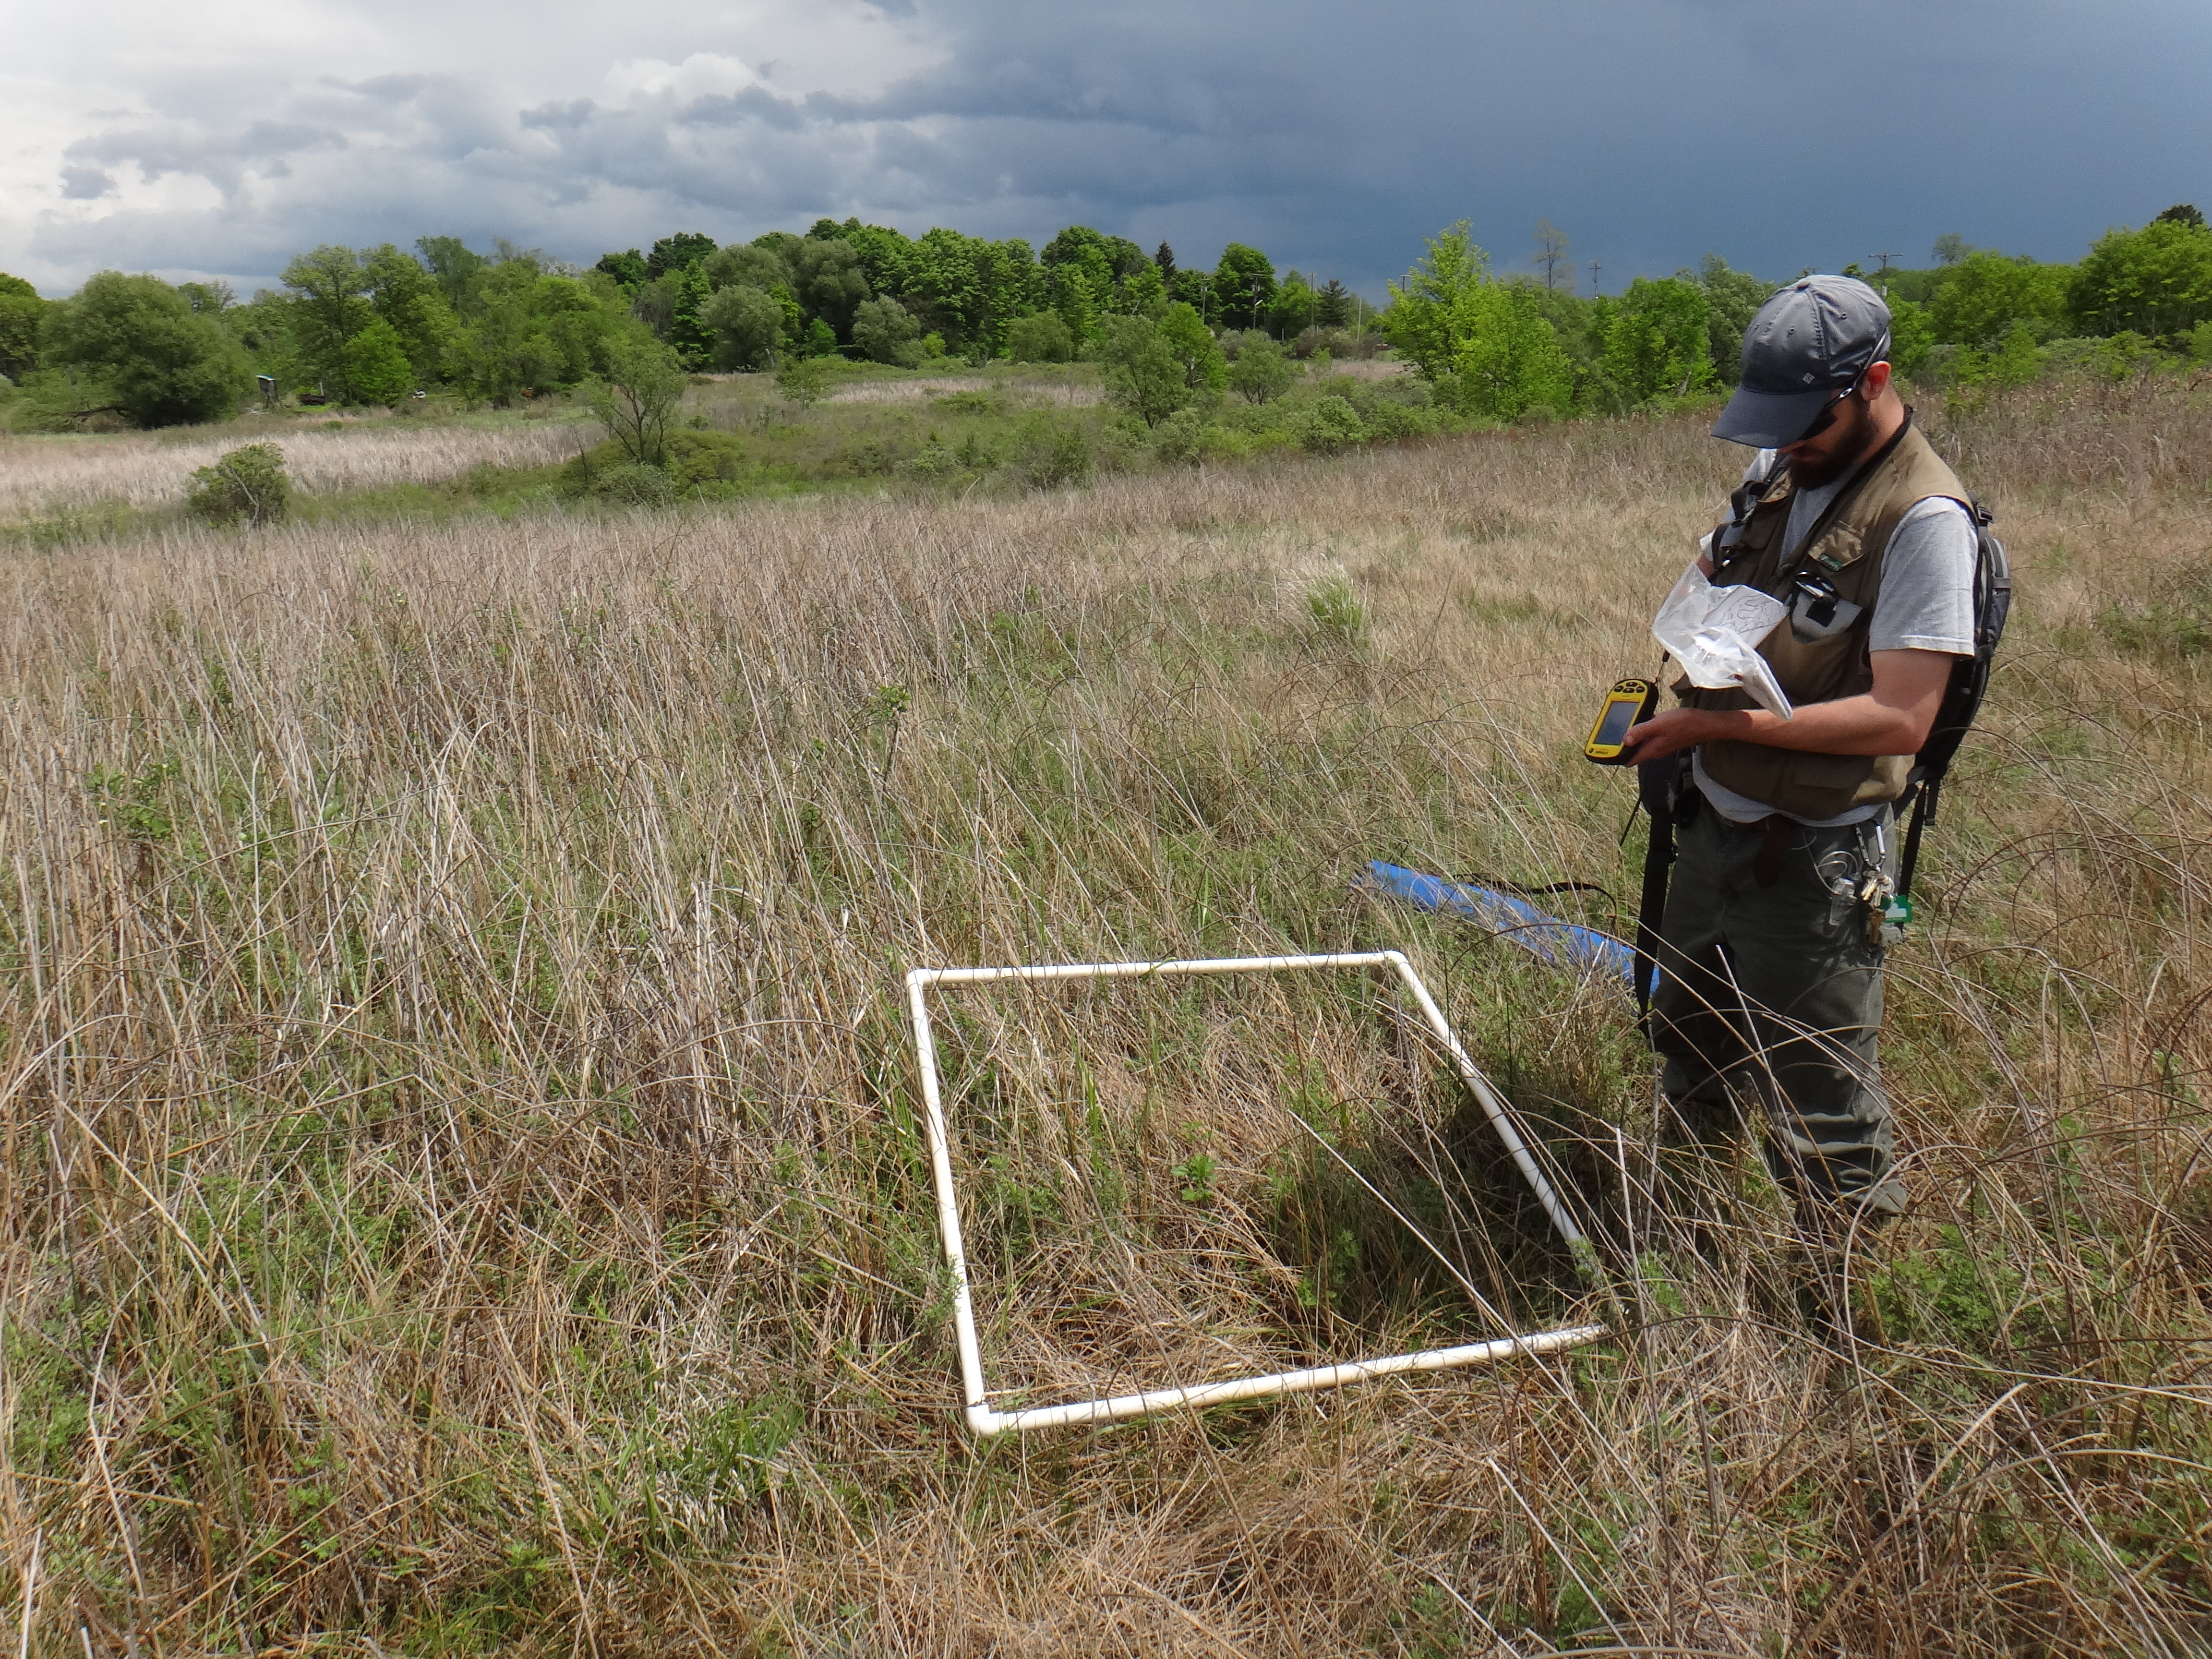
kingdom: Plantae
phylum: Tracheophyta
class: Magnoliopsida
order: Asterales
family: Asteraceae
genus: Symphyotrichum
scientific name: Symphyotrichum lateriflorum
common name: Calico aster
